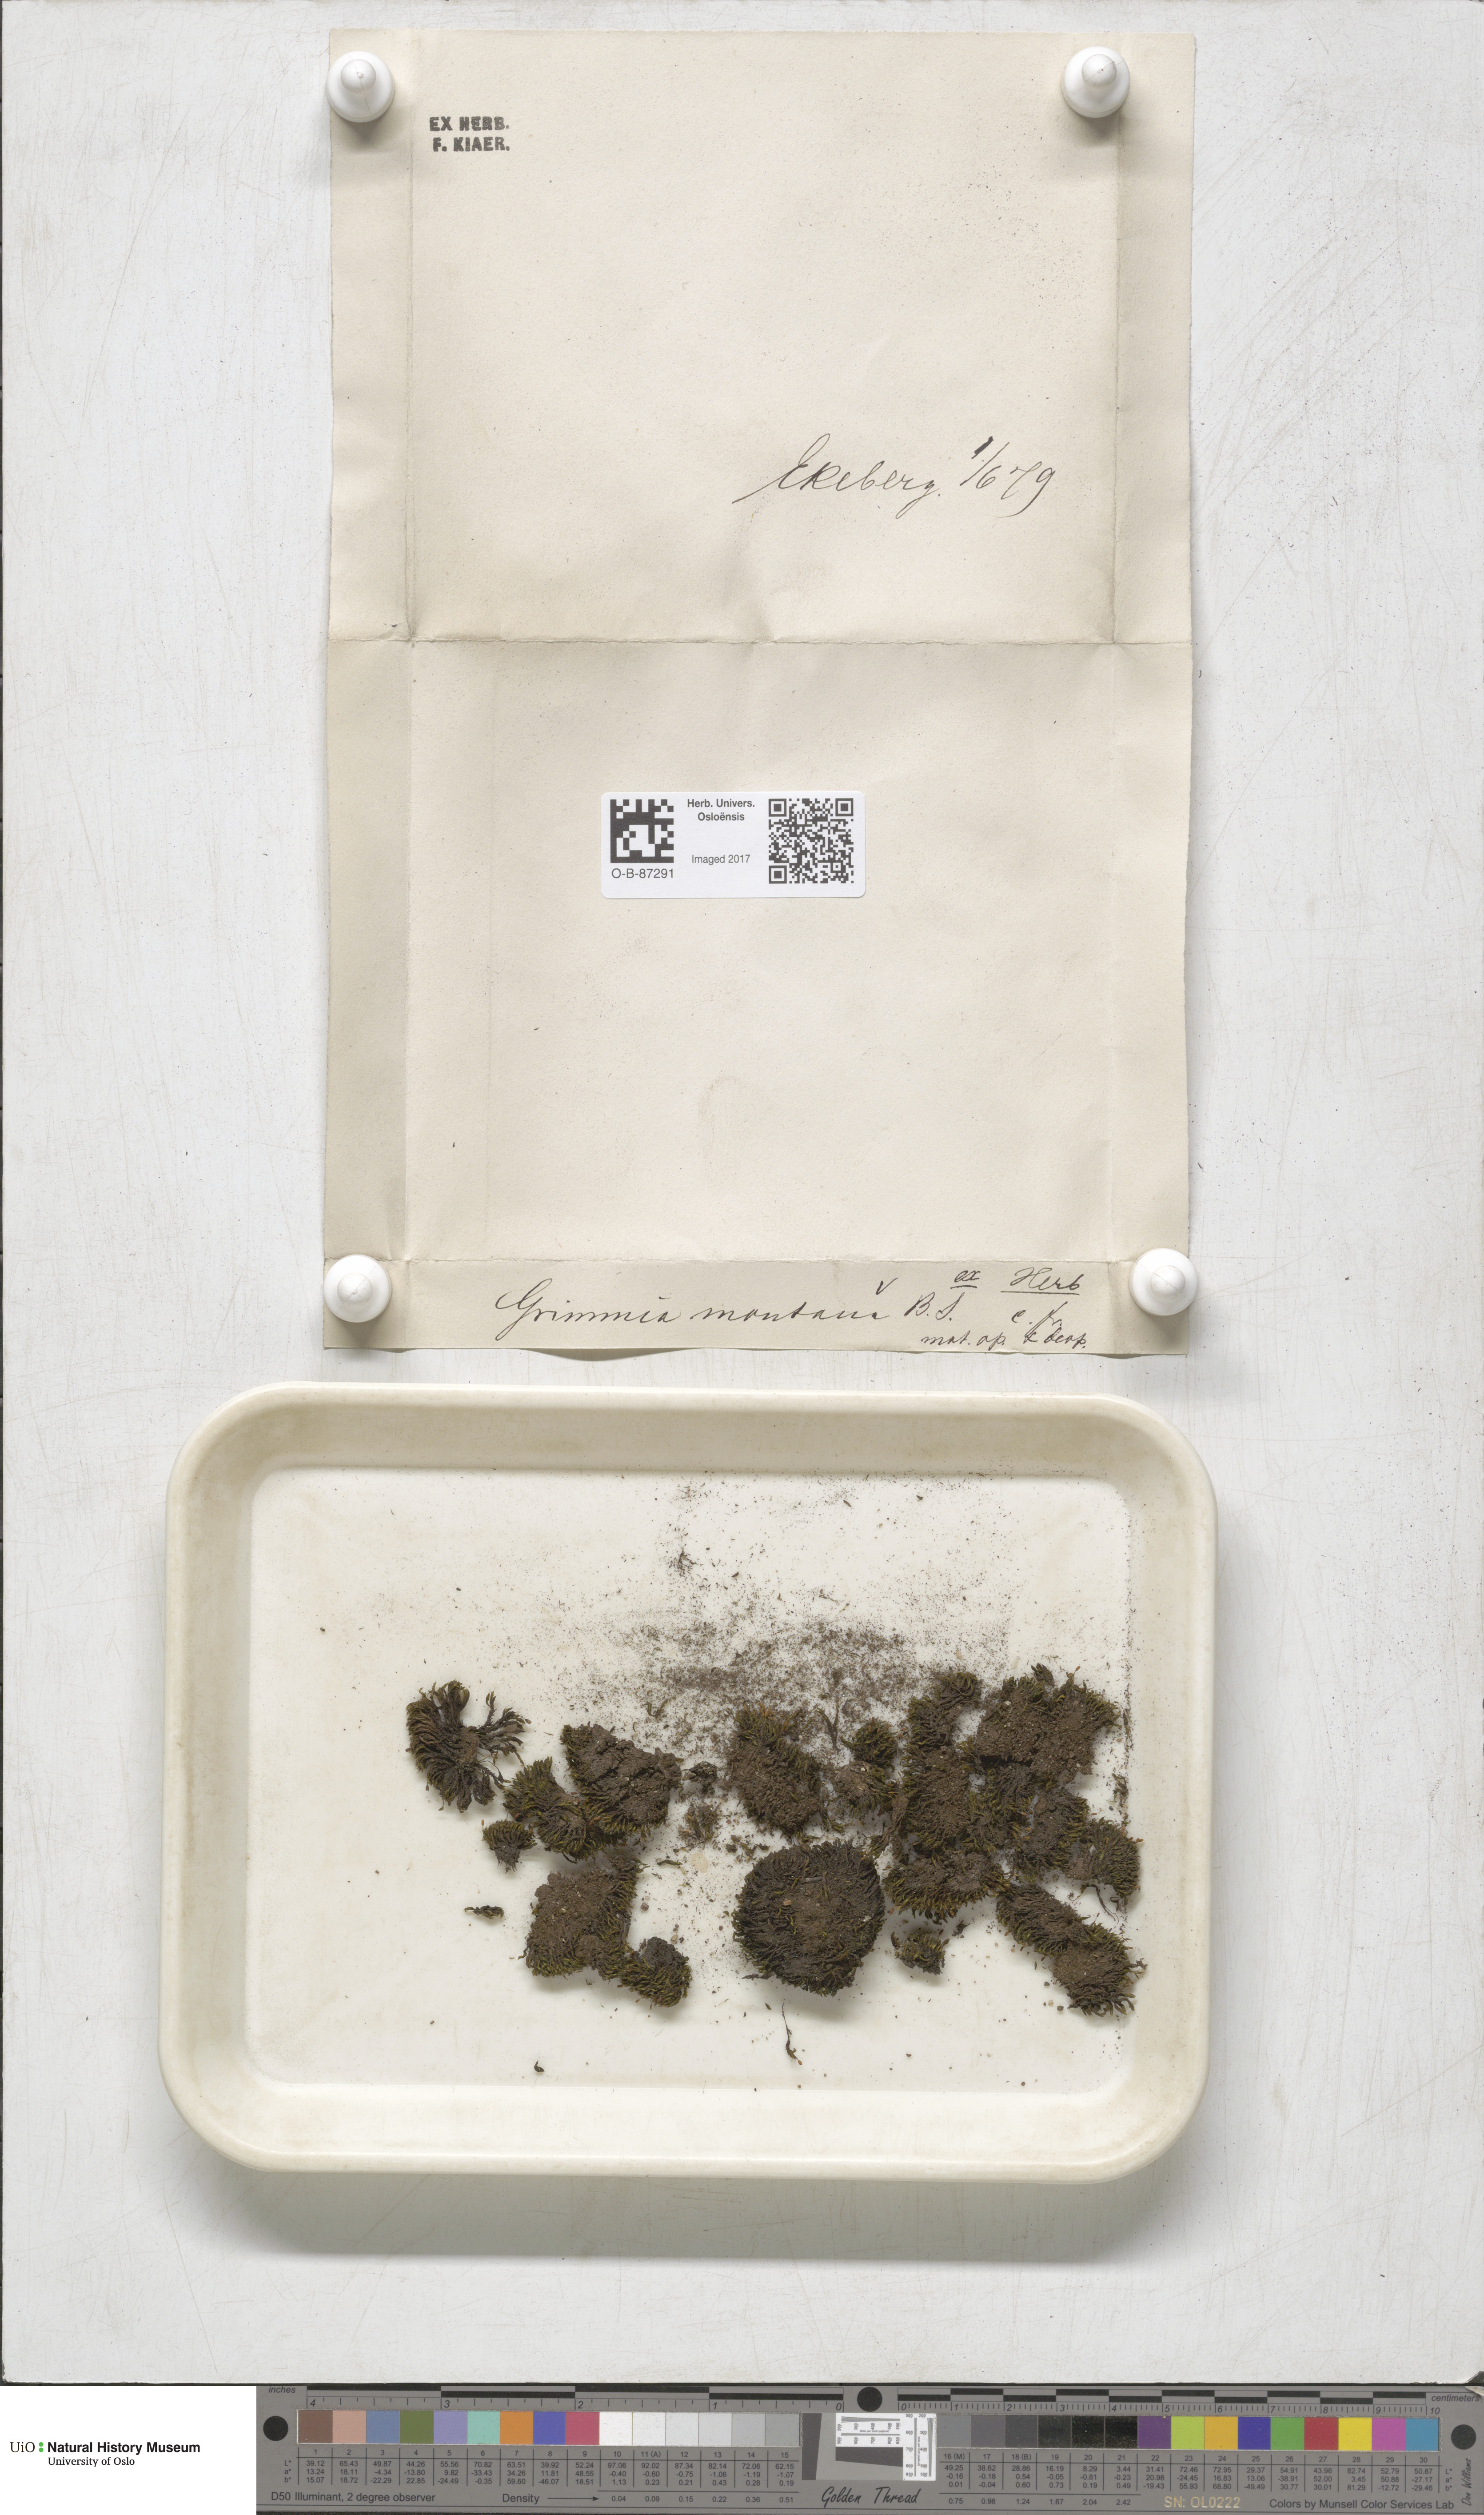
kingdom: Plantae
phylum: Bryophyta
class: Bryopsida
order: Grimmiales
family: Grimmiaceae
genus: Grimmia
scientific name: Grimmia montana
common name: Sun grimmia
